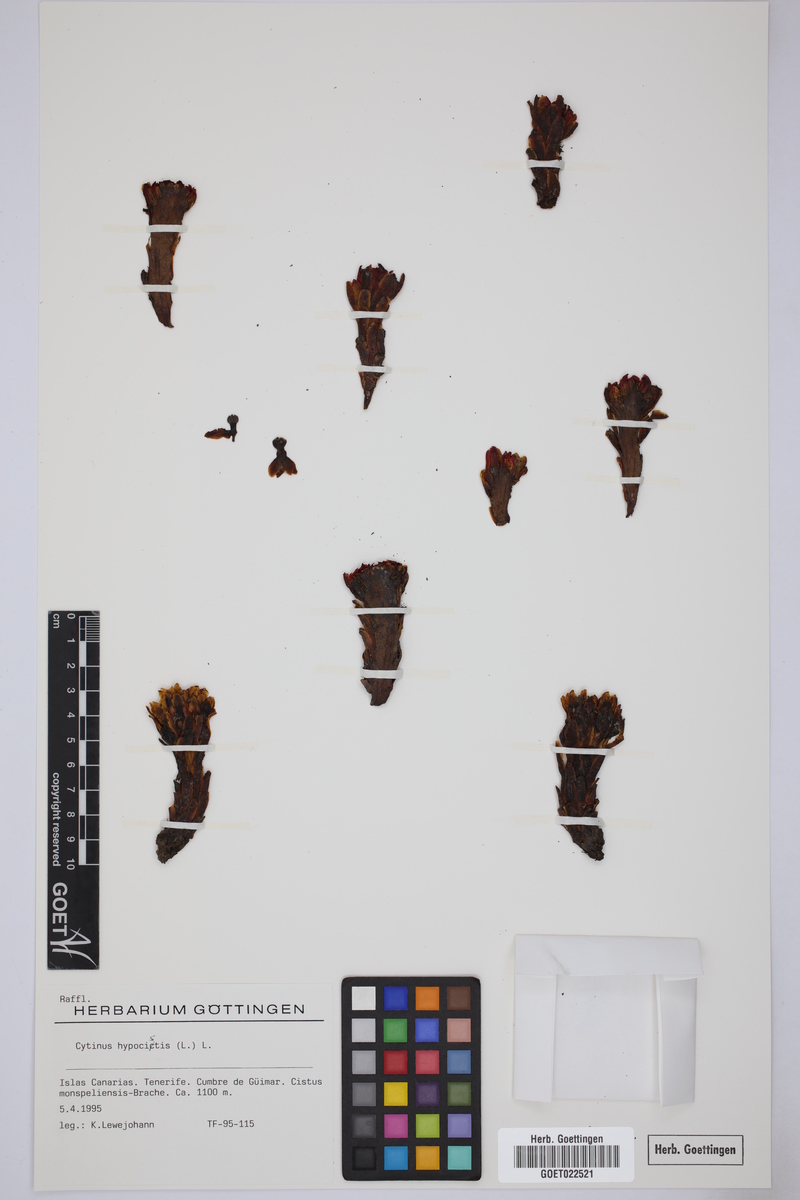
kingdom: Plantae
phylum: Tracheophyta
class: Magnoliopsida
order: Malvales
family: Cytinaceae
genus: Cytinus
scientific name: Cytinus hypocistis
